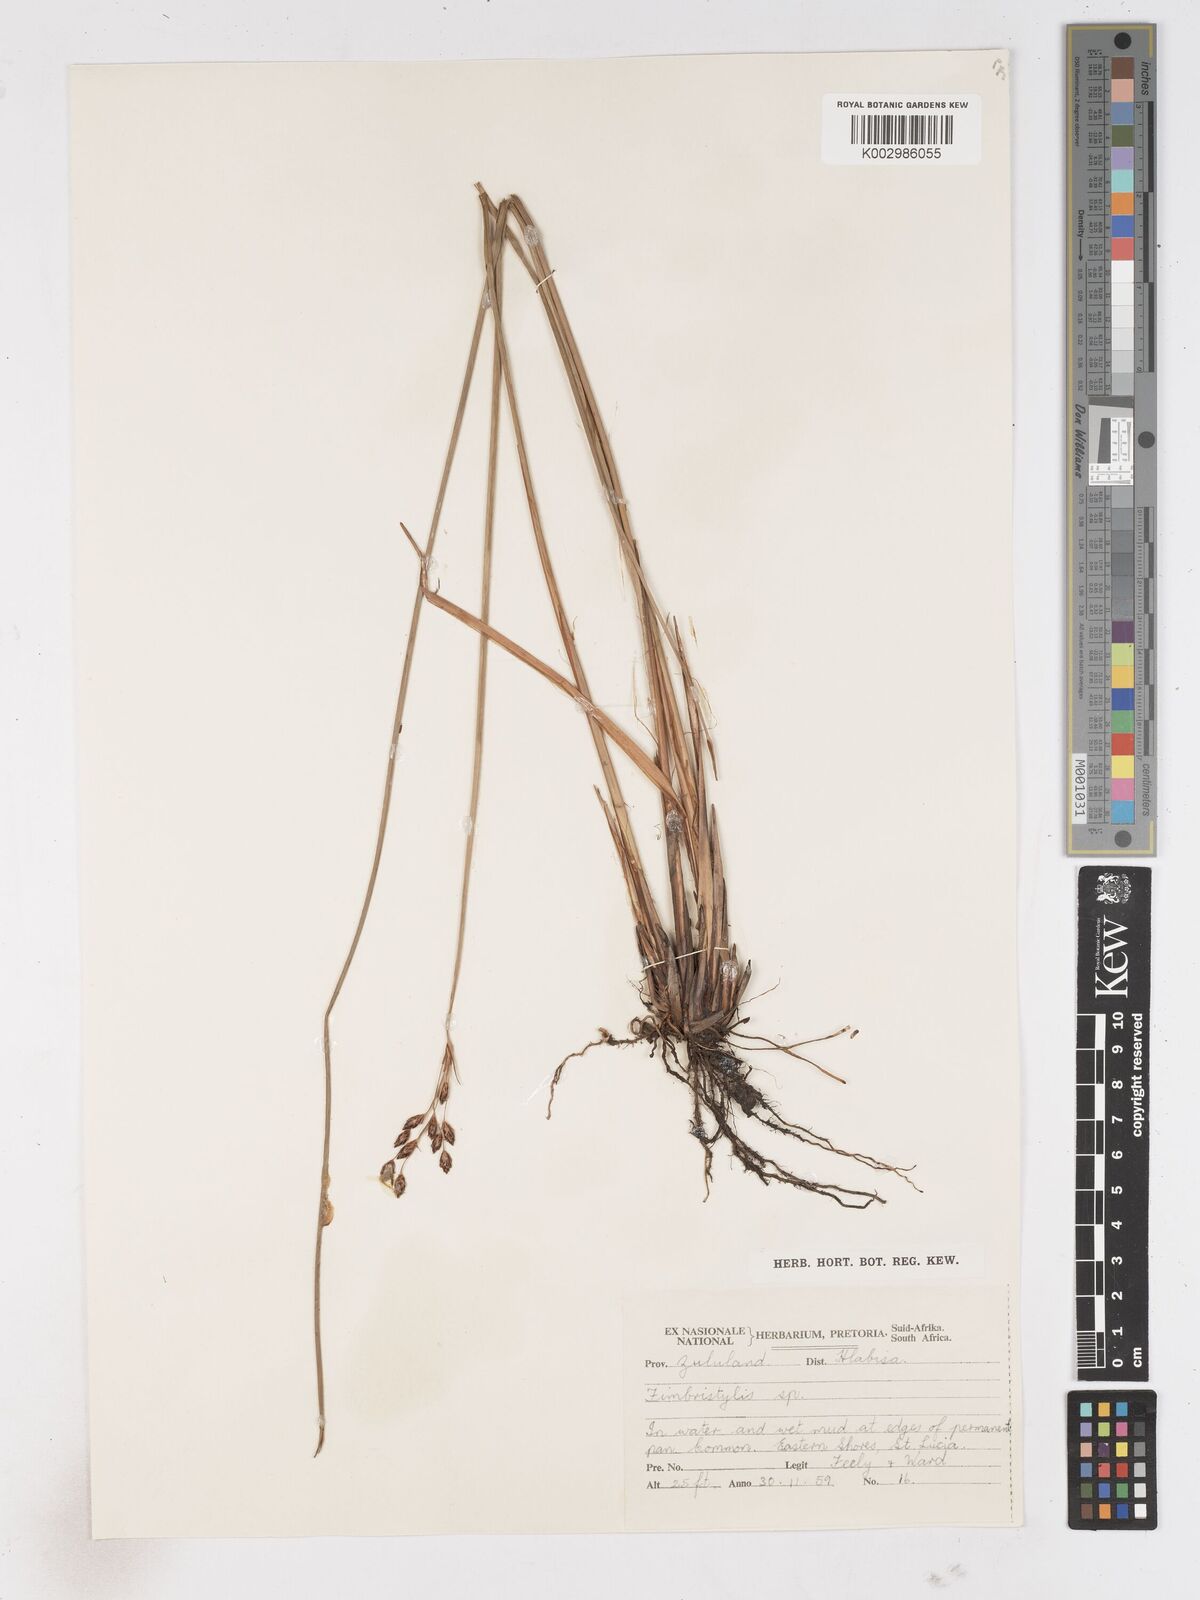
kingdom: Plantae
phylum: Tracheophyta
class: Liliopsida
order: Poales
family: Cyperaceae
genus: Fimbristylis
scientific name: Fimbristylis
